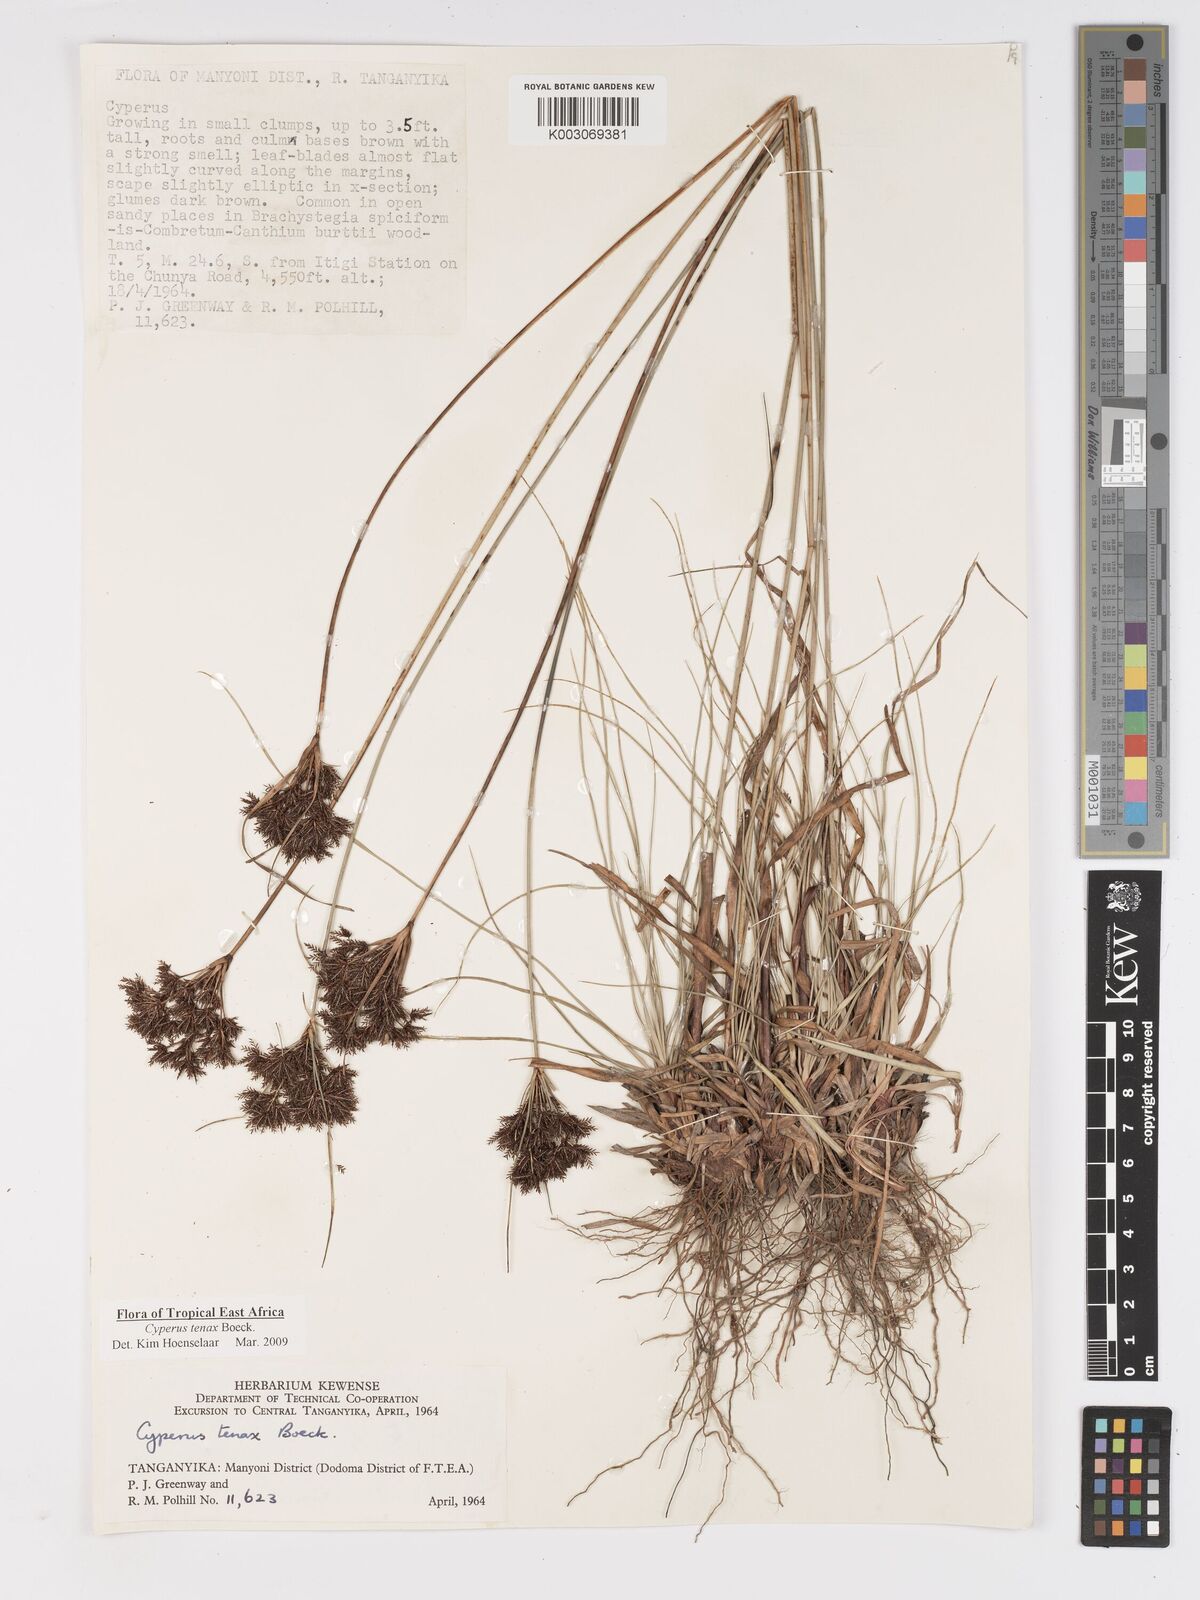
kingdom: Plantae
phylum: Tracheophyta
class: Liliopsida
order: Poales
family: Cyperaceae
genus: Cyperus
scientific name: Cyperus tenax
